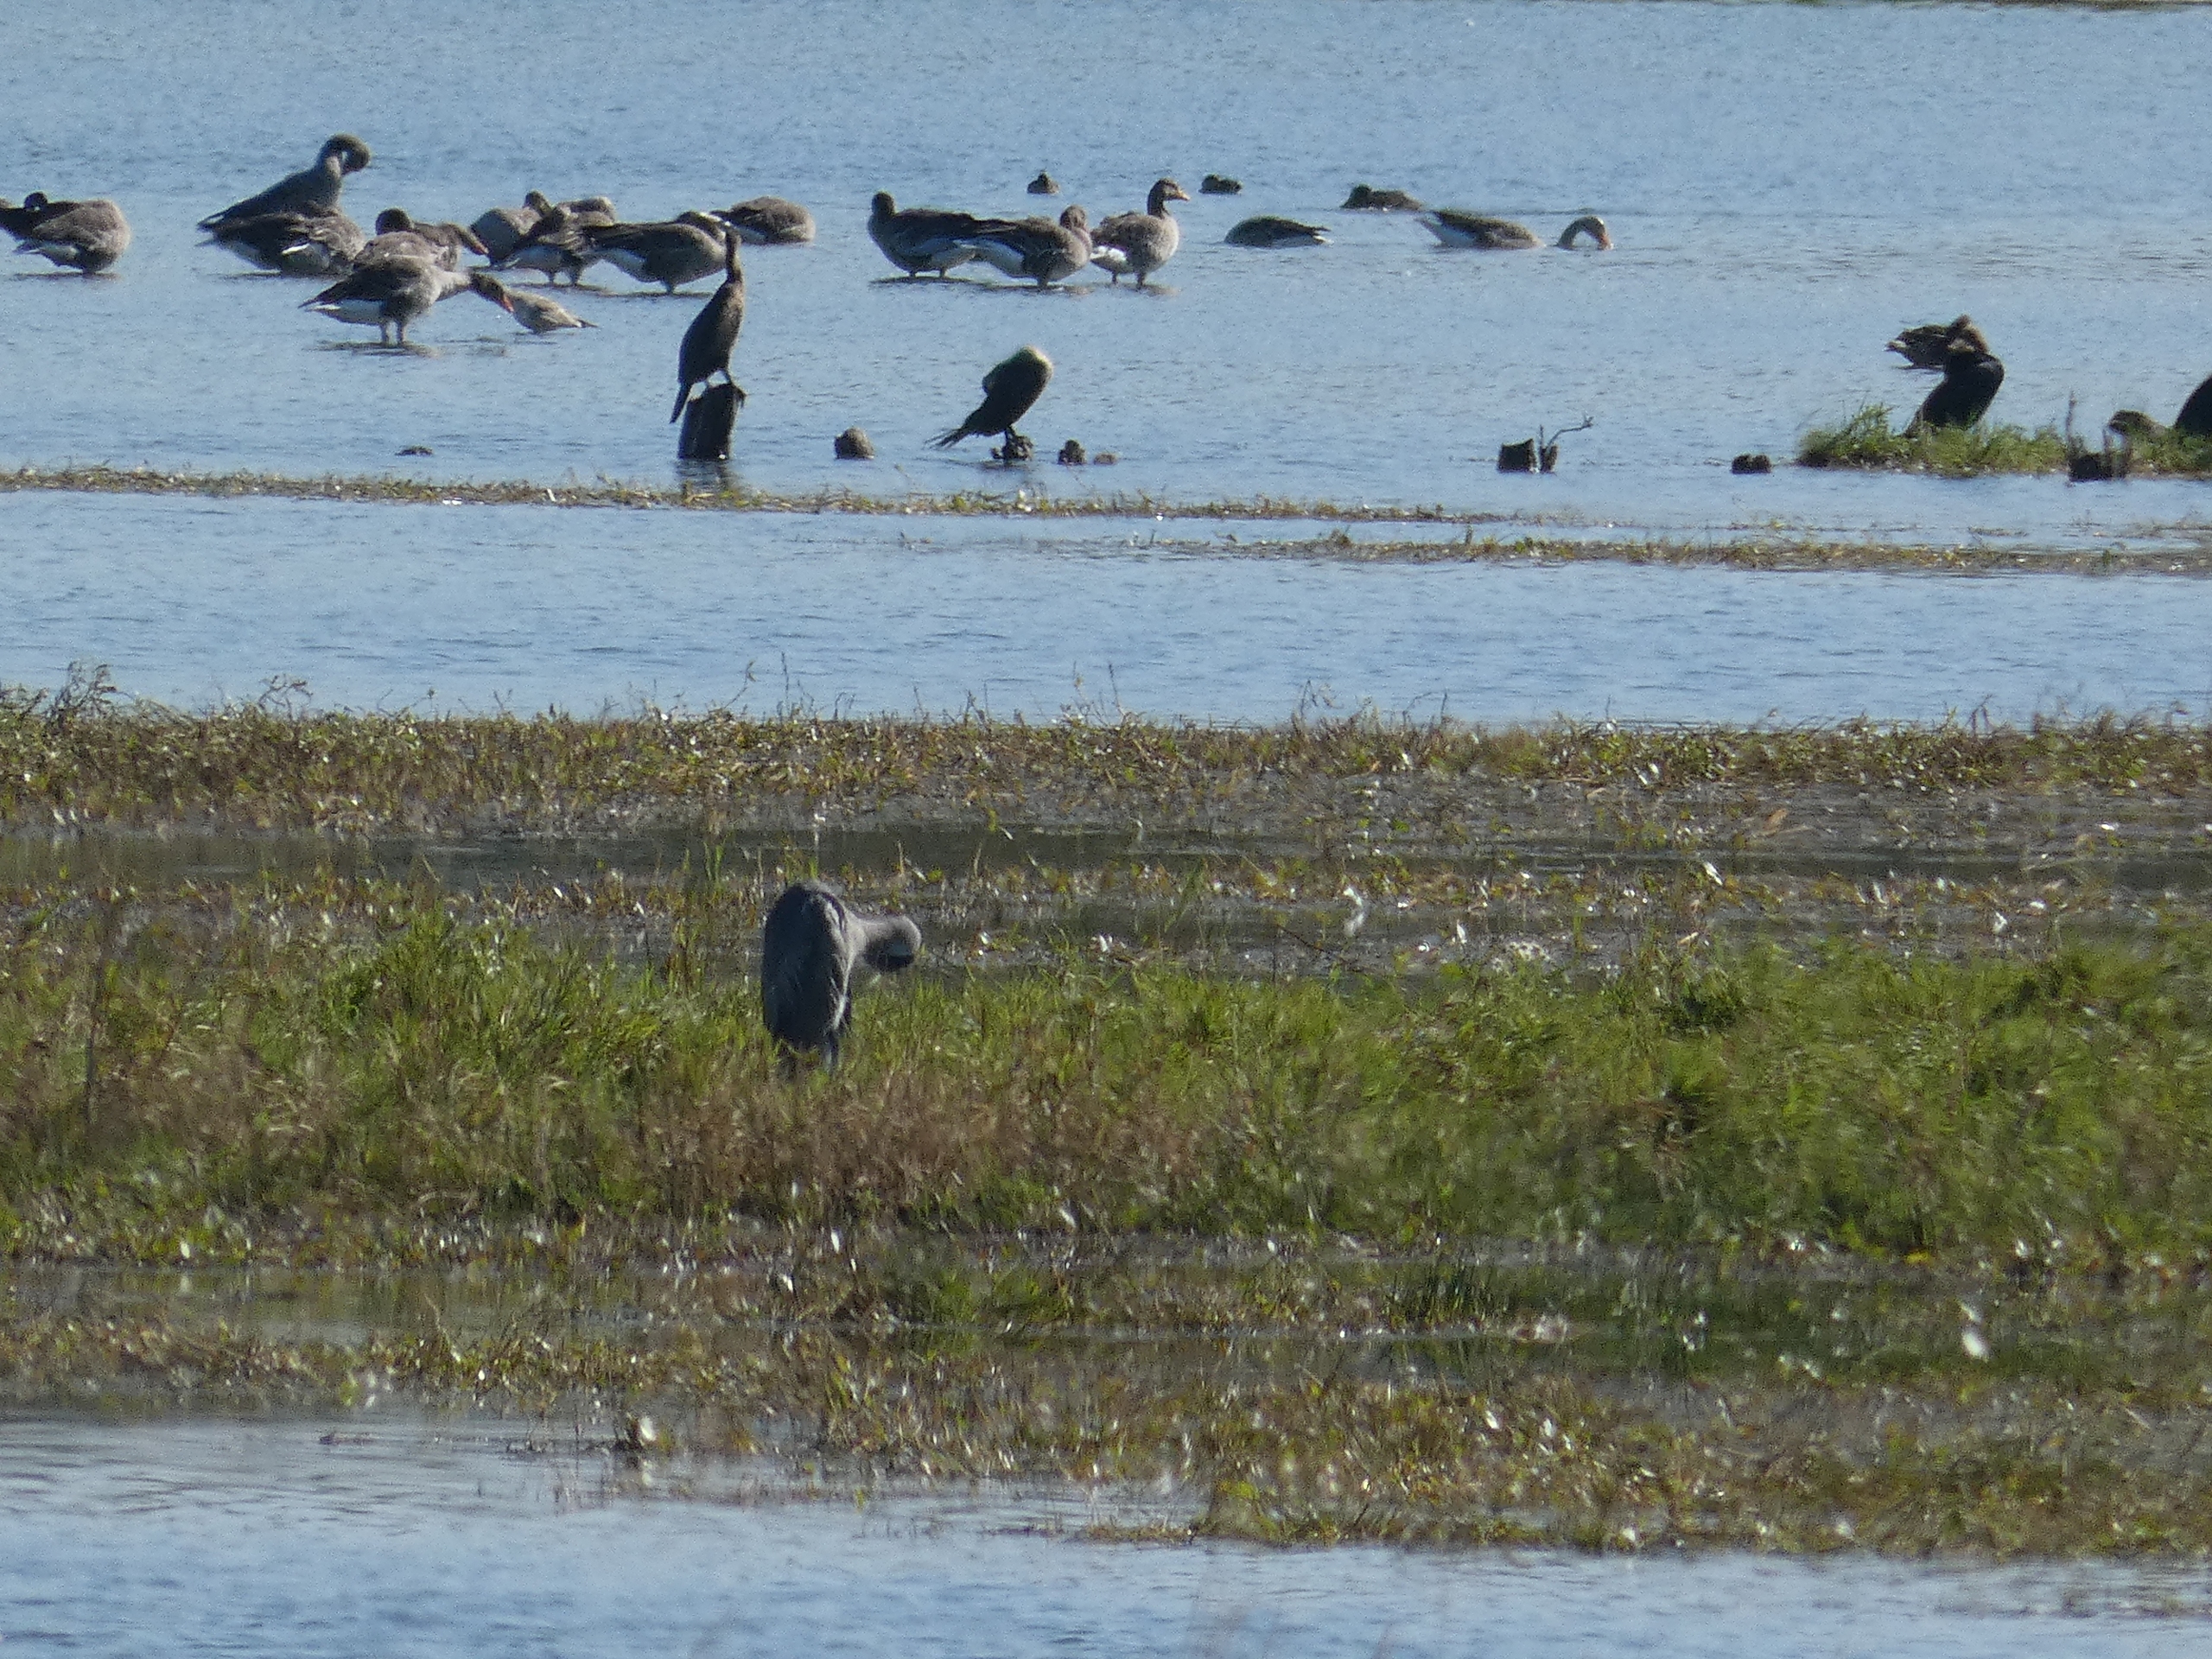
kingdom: Animalia
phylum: Chordata
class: Aves
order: Pelecaniformes
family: Ardeidae
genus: Ardea
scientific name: Ardea cinerea
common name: Fiskehejre
